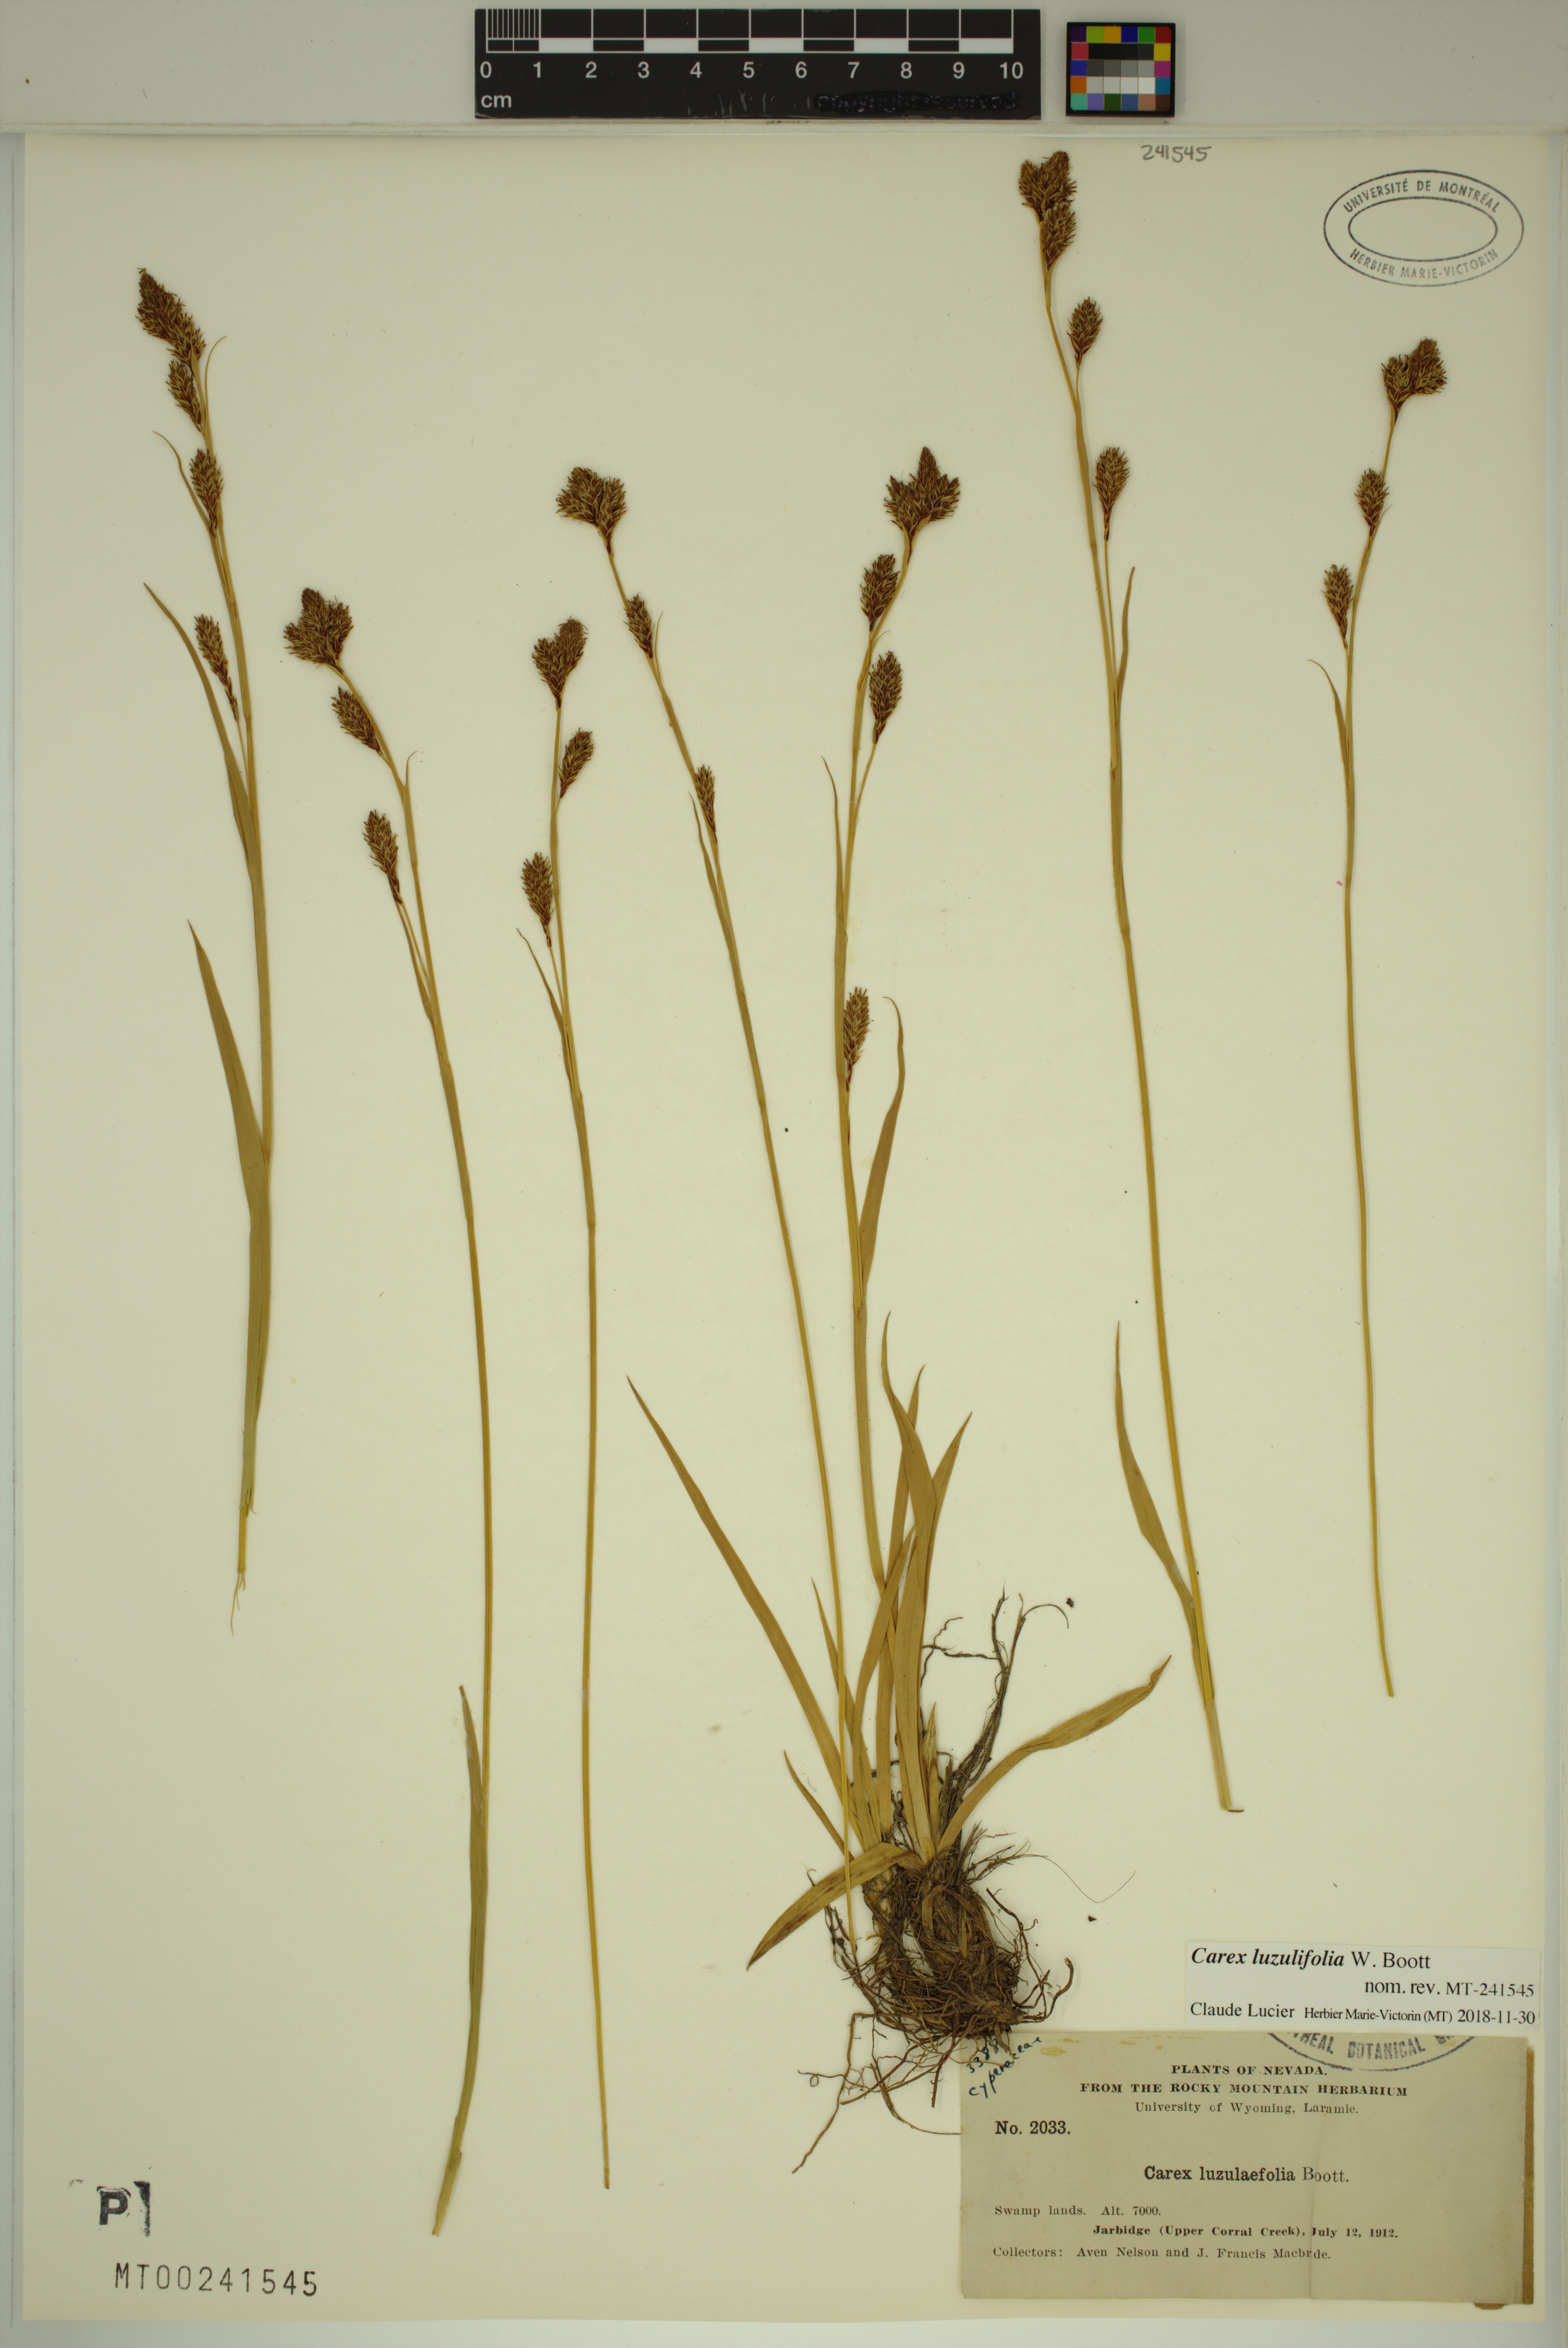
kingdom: Plantae
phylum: Tracheophyta
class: Liliopsida
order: Poales
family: Cyperaceae
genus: Carex
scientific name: Carex luzulifolia
